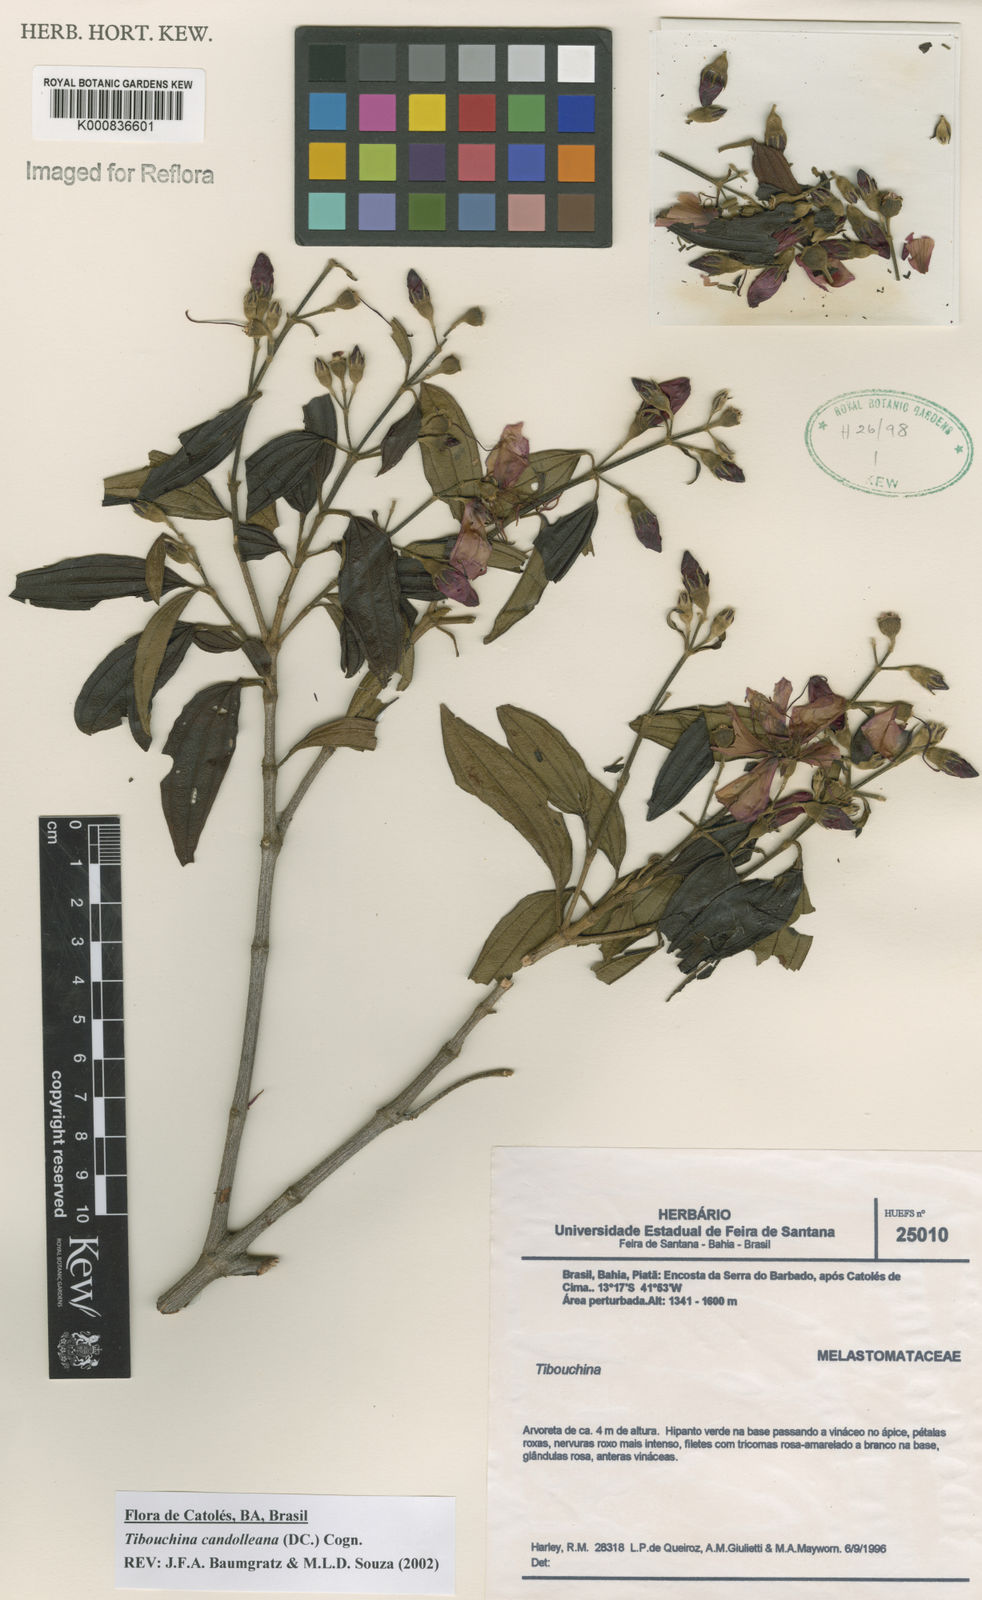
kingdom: Plantae
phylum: Tracheophyta
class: Magnoliopsida
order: Myrtales
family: Melastomataceae
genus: Pleroma
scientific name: Pleroma candolleanum
